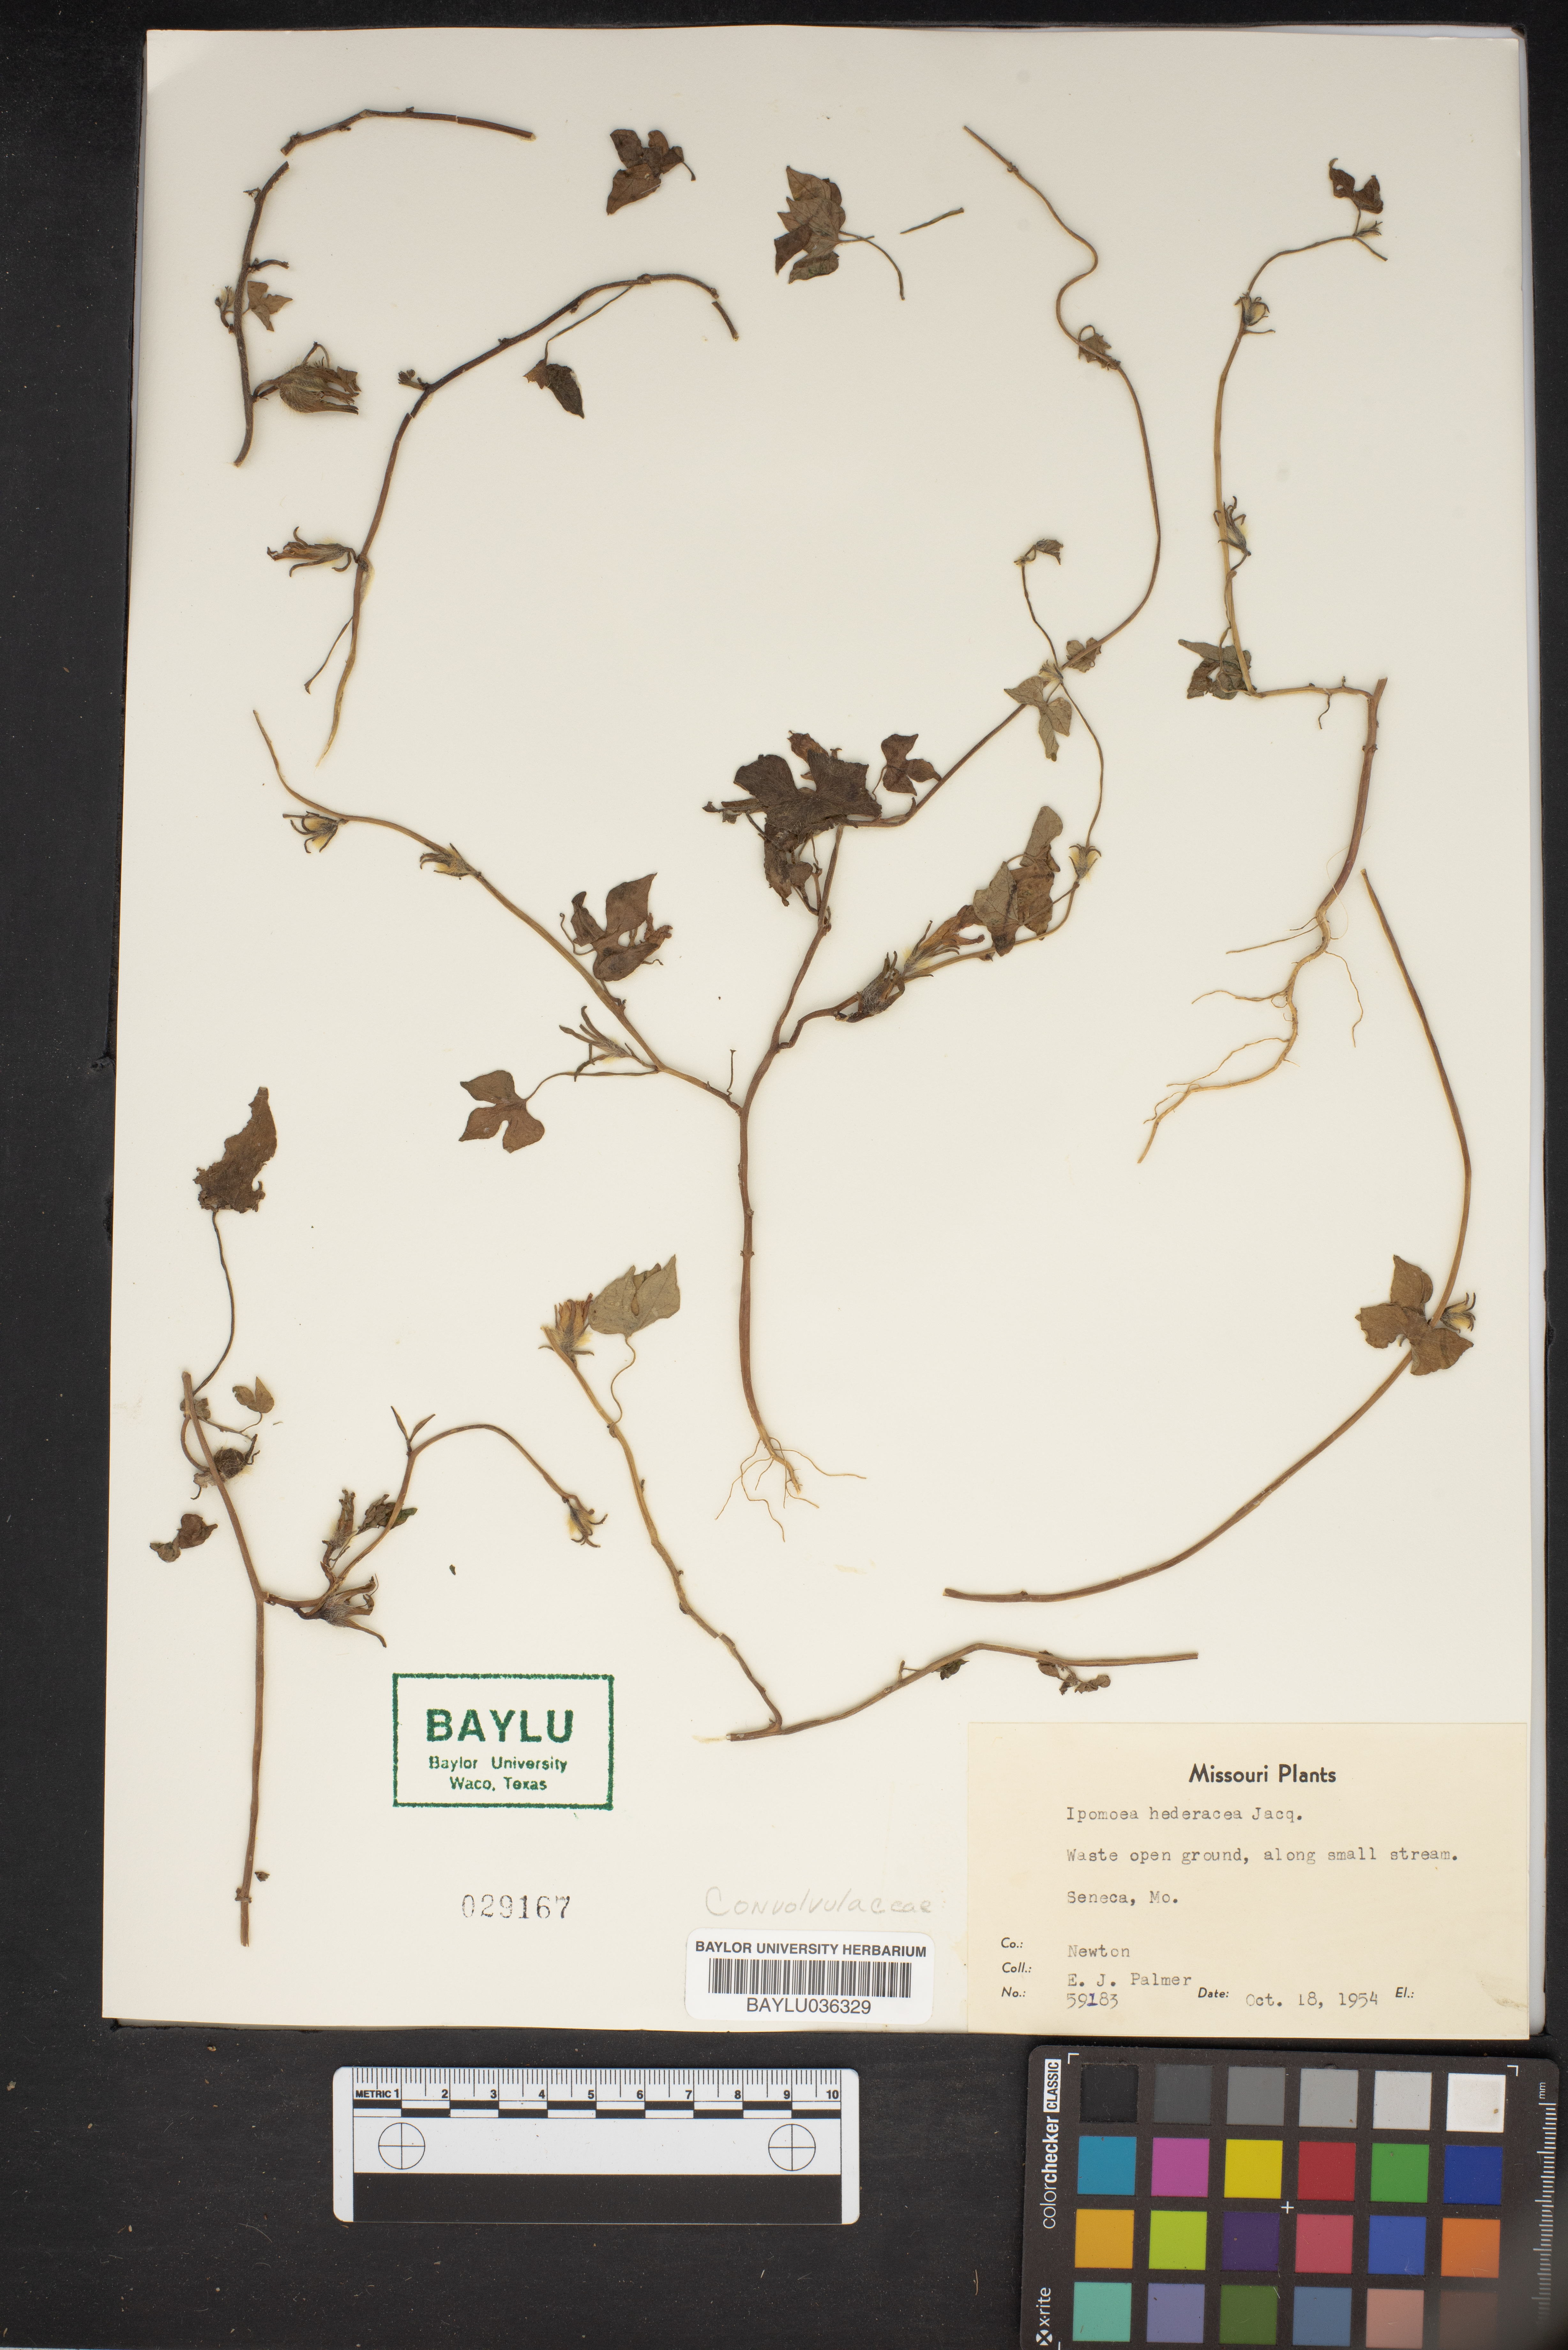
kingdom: Plantae
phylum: Tracheophyta
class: Magnoliopsida
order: Solanales
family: Convolvulaceae
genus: Ipomoea
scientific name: Ipomoea hederacea
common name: Ivy-leaved morning-glory
